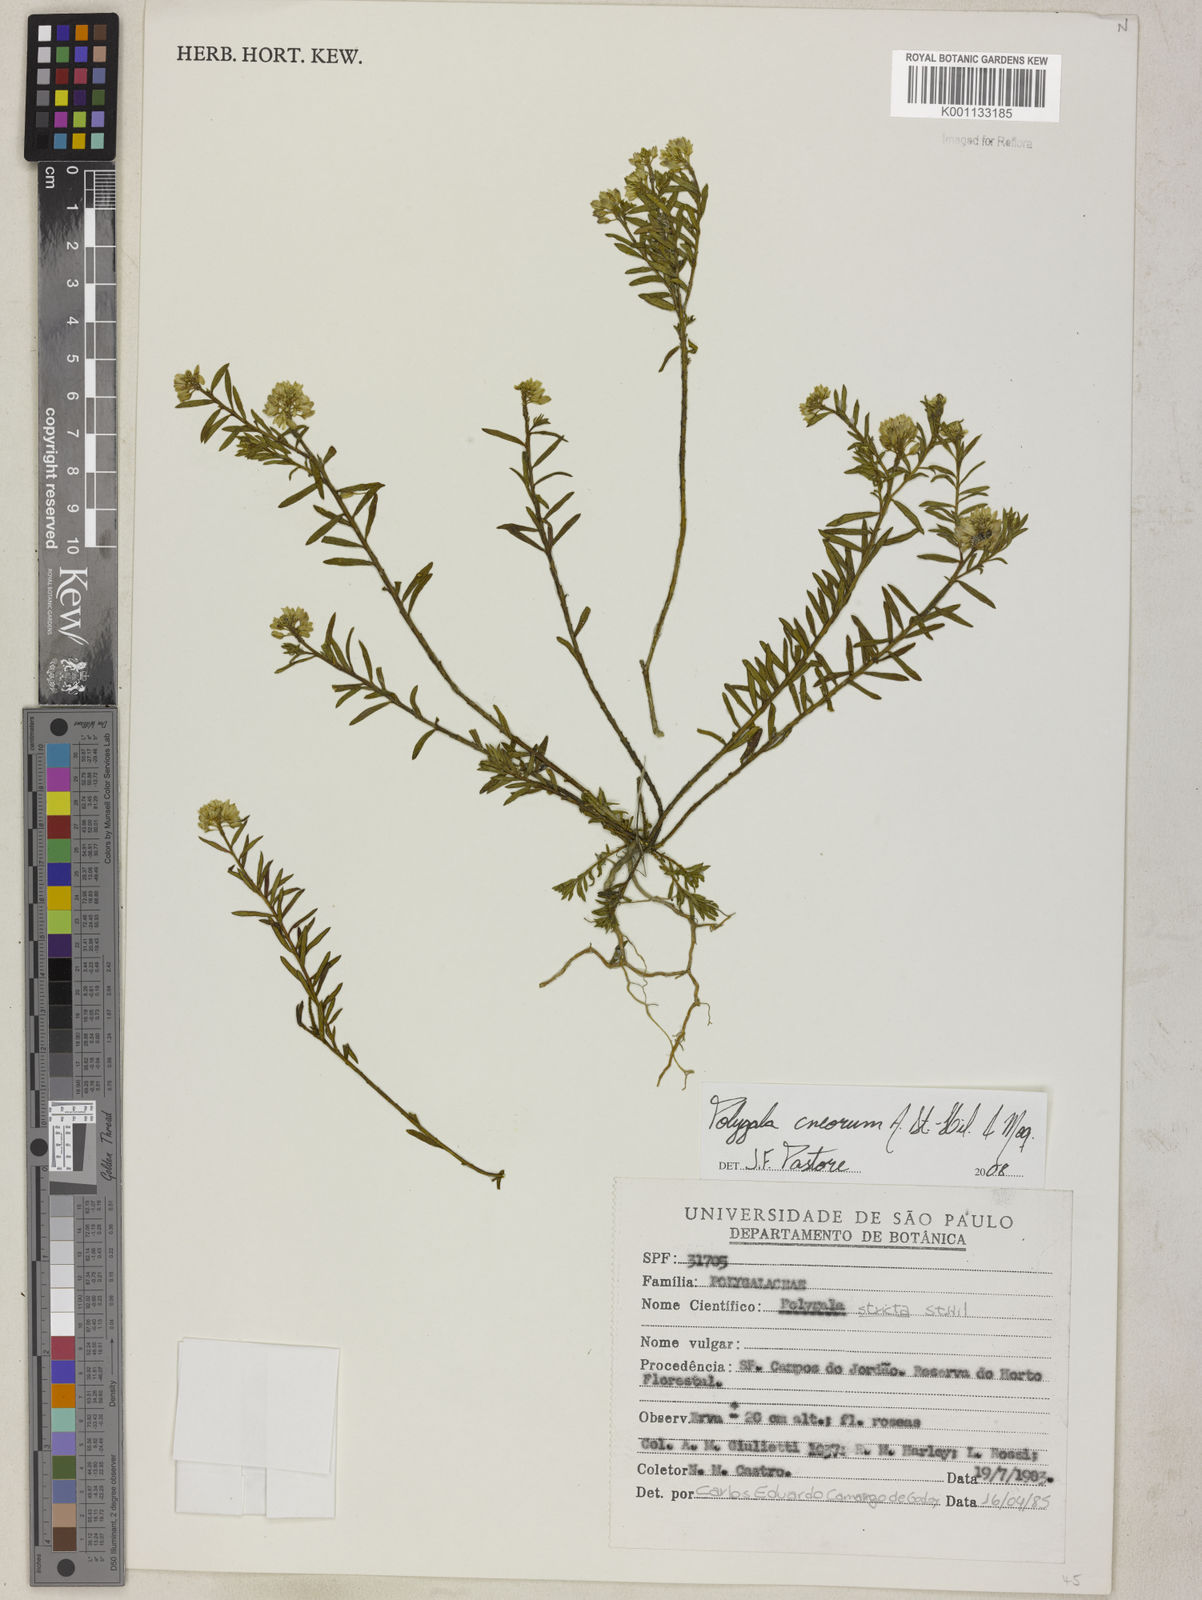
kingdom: Plantae
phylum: Tracheophyta
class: Magnoliopsida
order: Fabales
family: Polygalaceae
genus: Polygala
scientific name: Polygala cneorum
